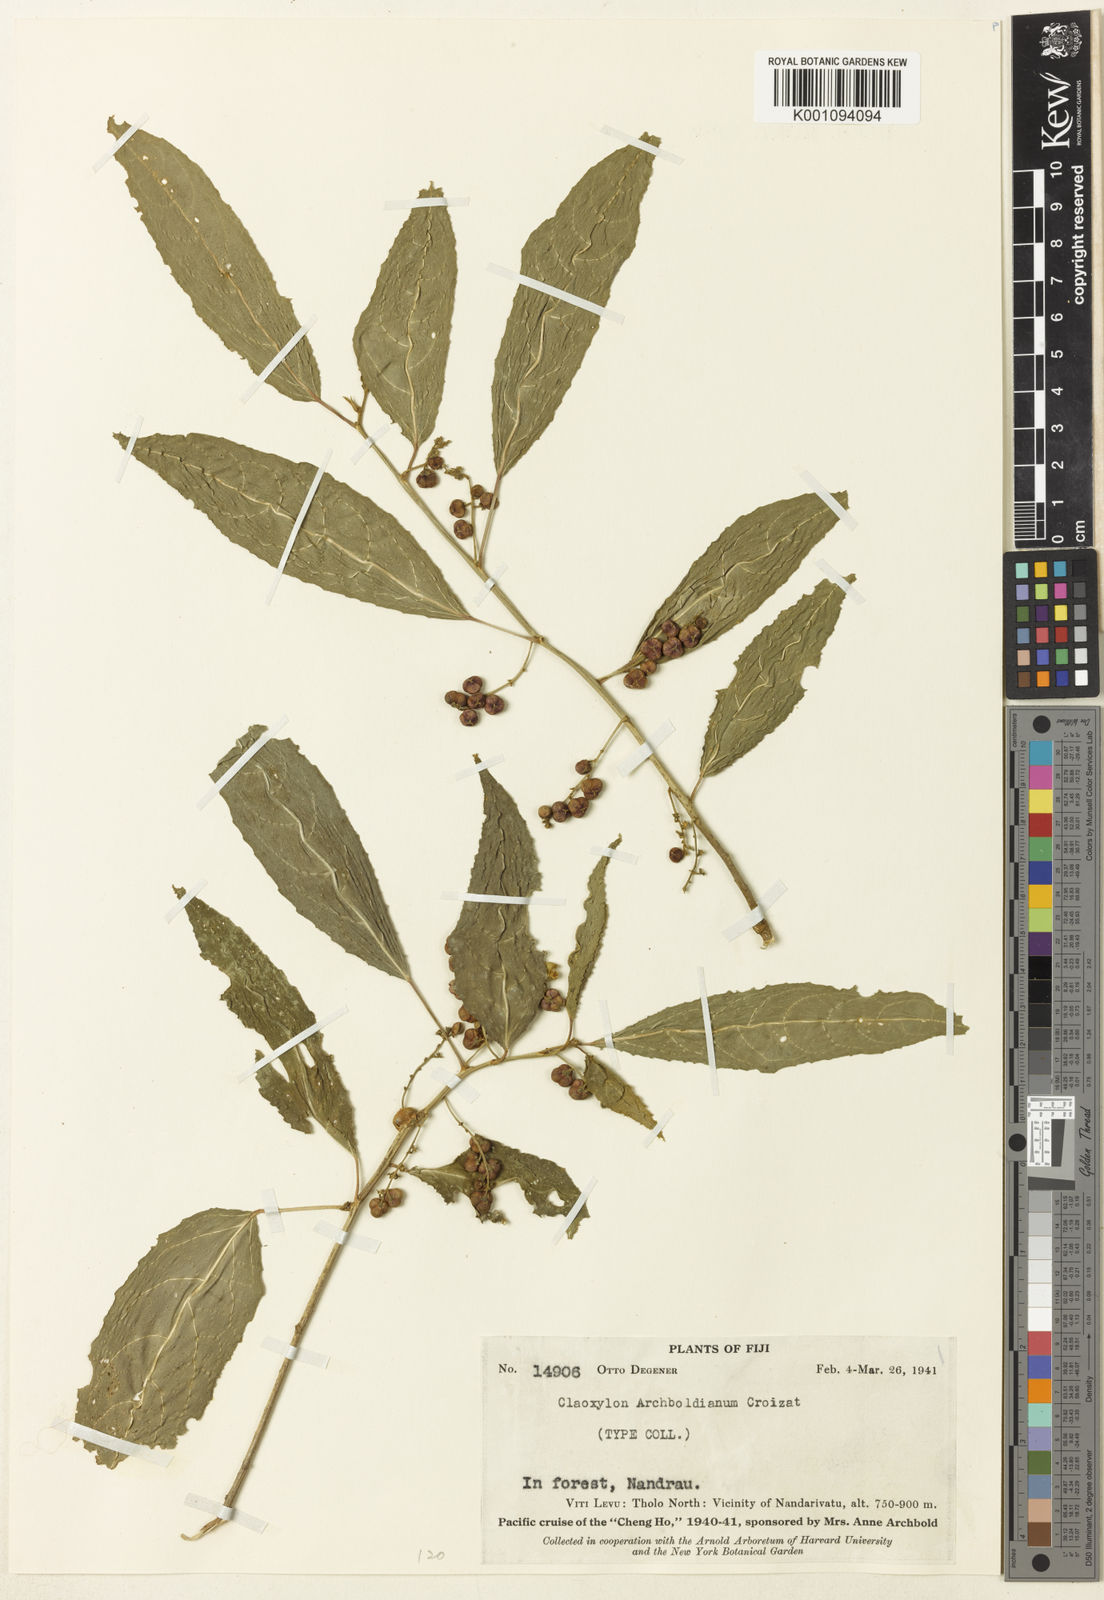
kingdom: Plantae
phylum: Tracheophyta
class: Magnoliopsida
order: Malpighiales
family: Euphorbiaceae
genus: Claoxylon
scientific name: Claoxylon echinospermum
